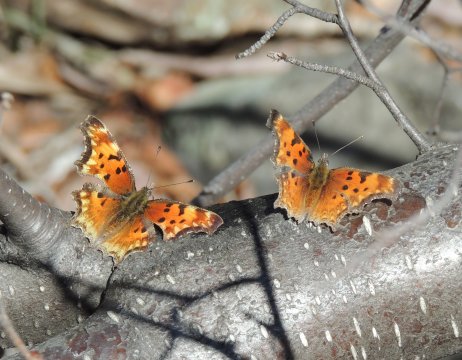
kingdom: Animalia
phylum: Arthropoda
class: Insecta
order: Lepidoptera
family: Nymphalidae
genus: Polygonia
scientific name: Polygonia gracilis
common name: Hoary Comma
